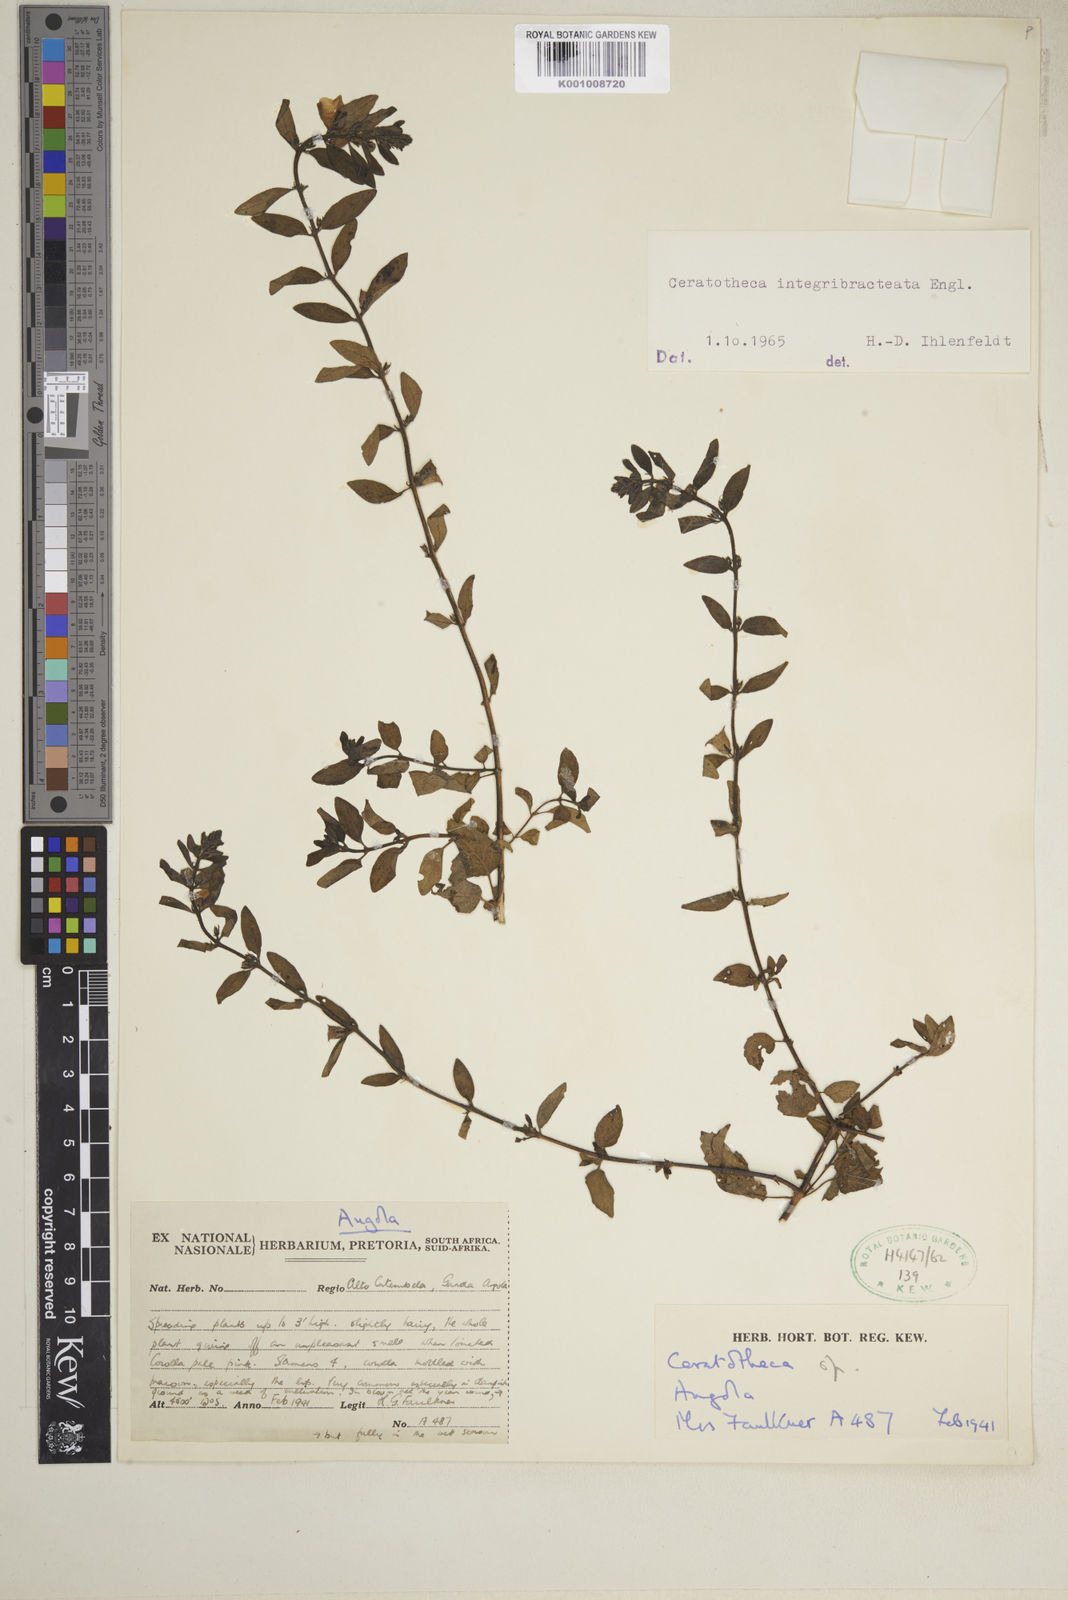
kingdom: Plantae
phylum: Tracheophyta
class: Magnoliopsida
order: Lamiales
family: Pedaliaceae
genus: Sesamum
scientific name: Sesamum integribracteatum
